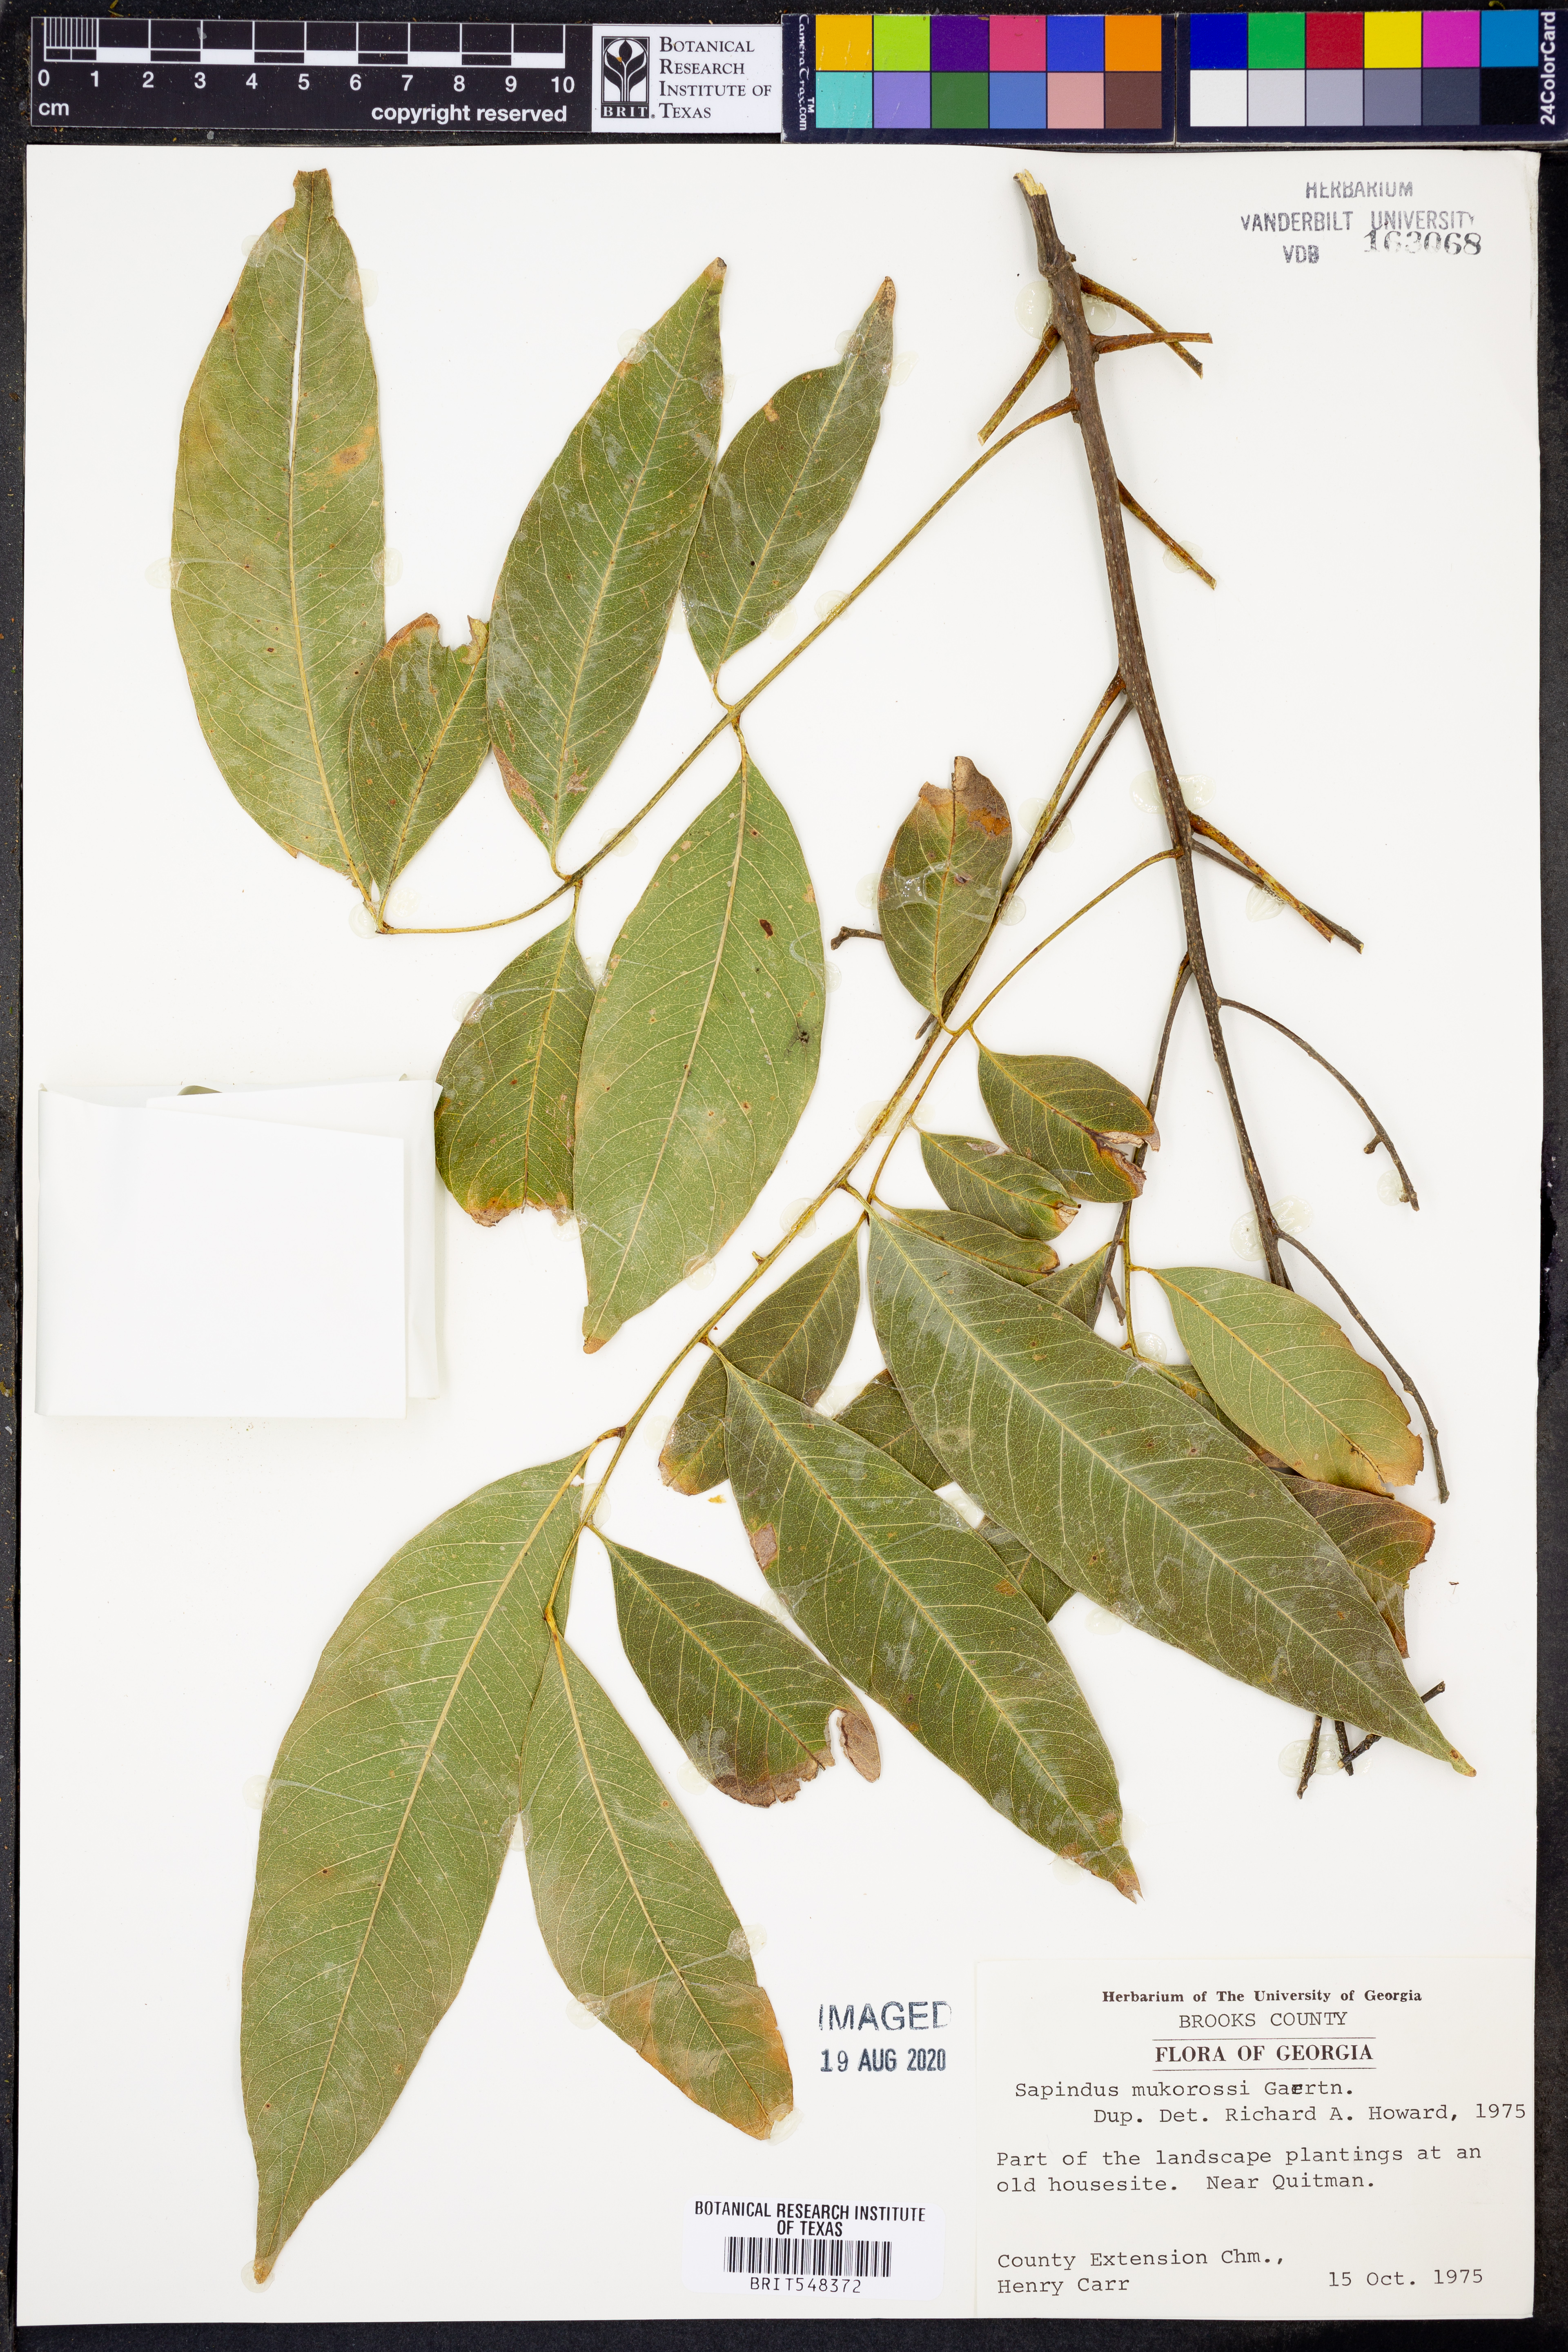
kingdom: Plantae
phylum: Tracheophyta
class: Magnoliopsida
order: Sapindales
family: Sapindaceae
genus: Sapindus
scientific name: Sapindus mukorossi
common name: Chinese soapberry
